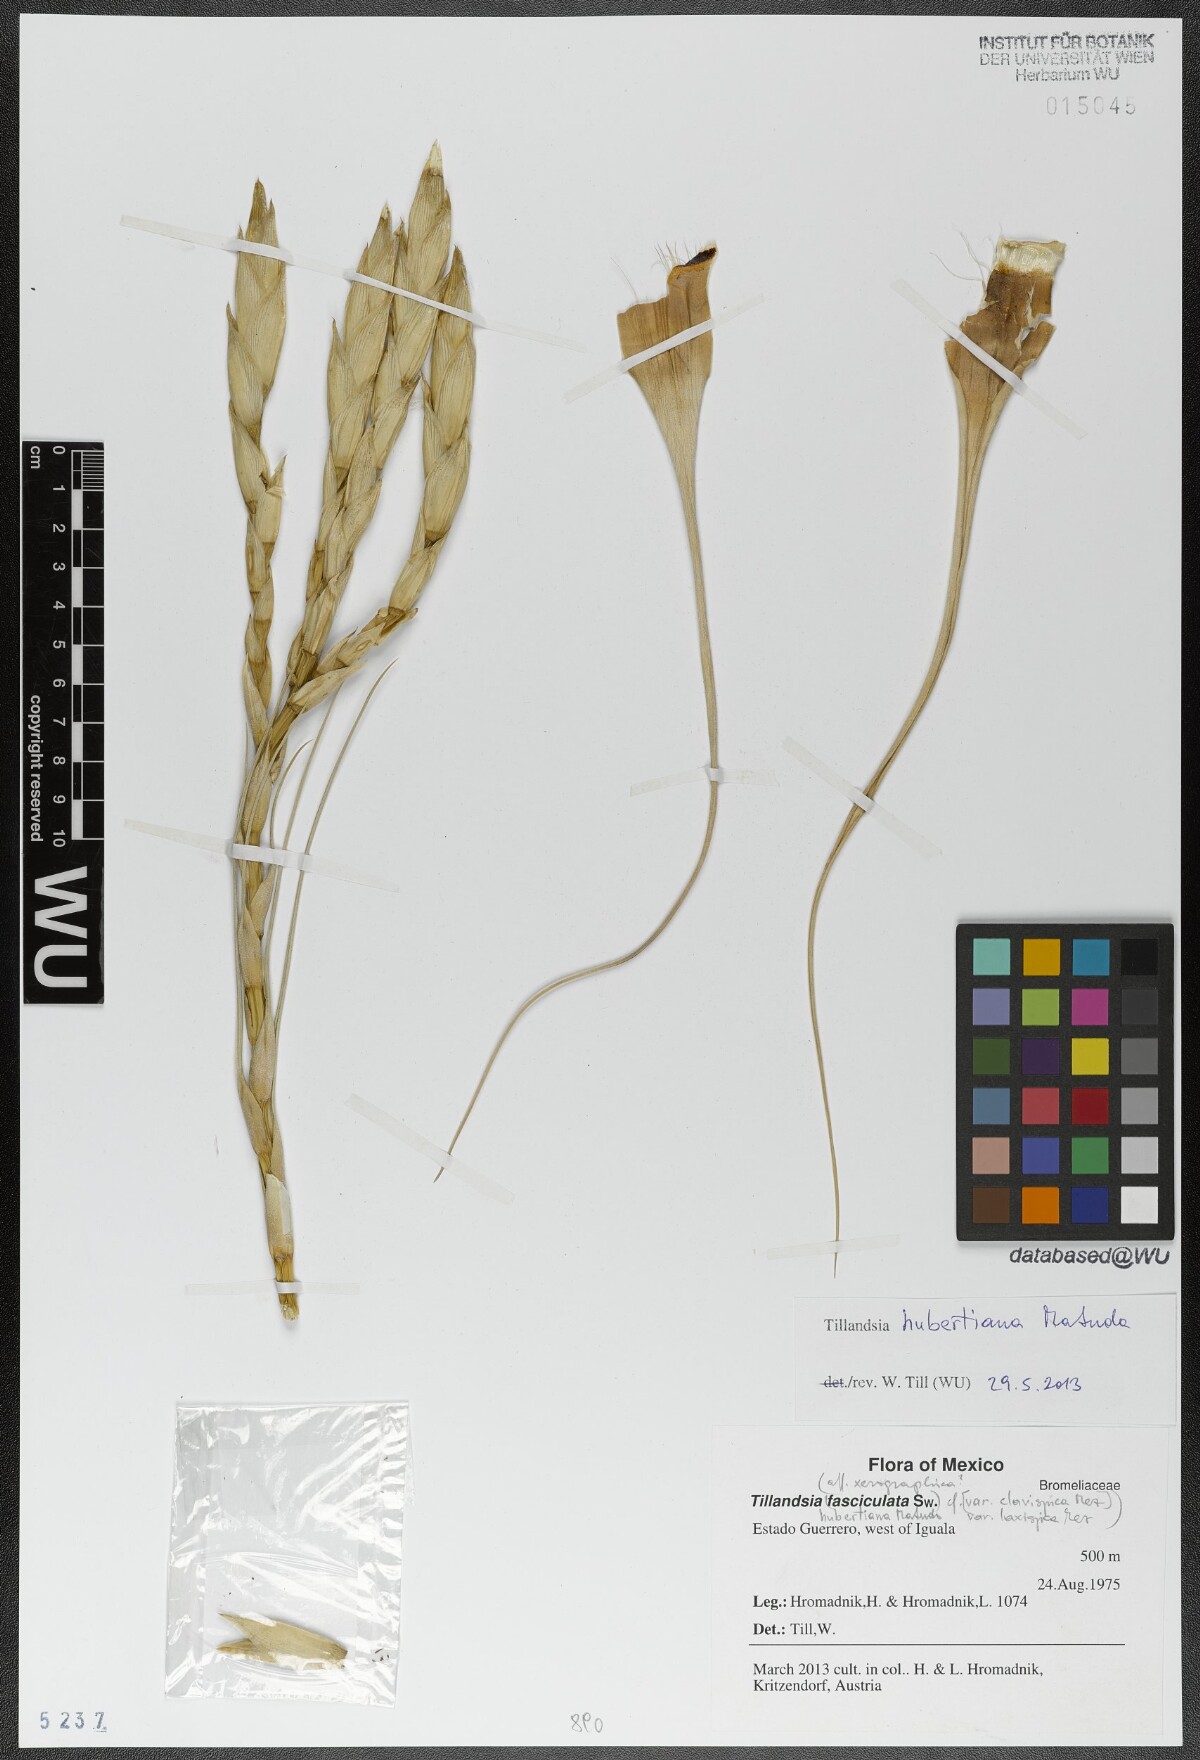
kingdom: Plantae
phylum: Tracheophyta
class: Liliopsida
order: Poales
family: Bromeliaceae
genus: Tillandsia
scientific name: Tillandsia hubertiana
